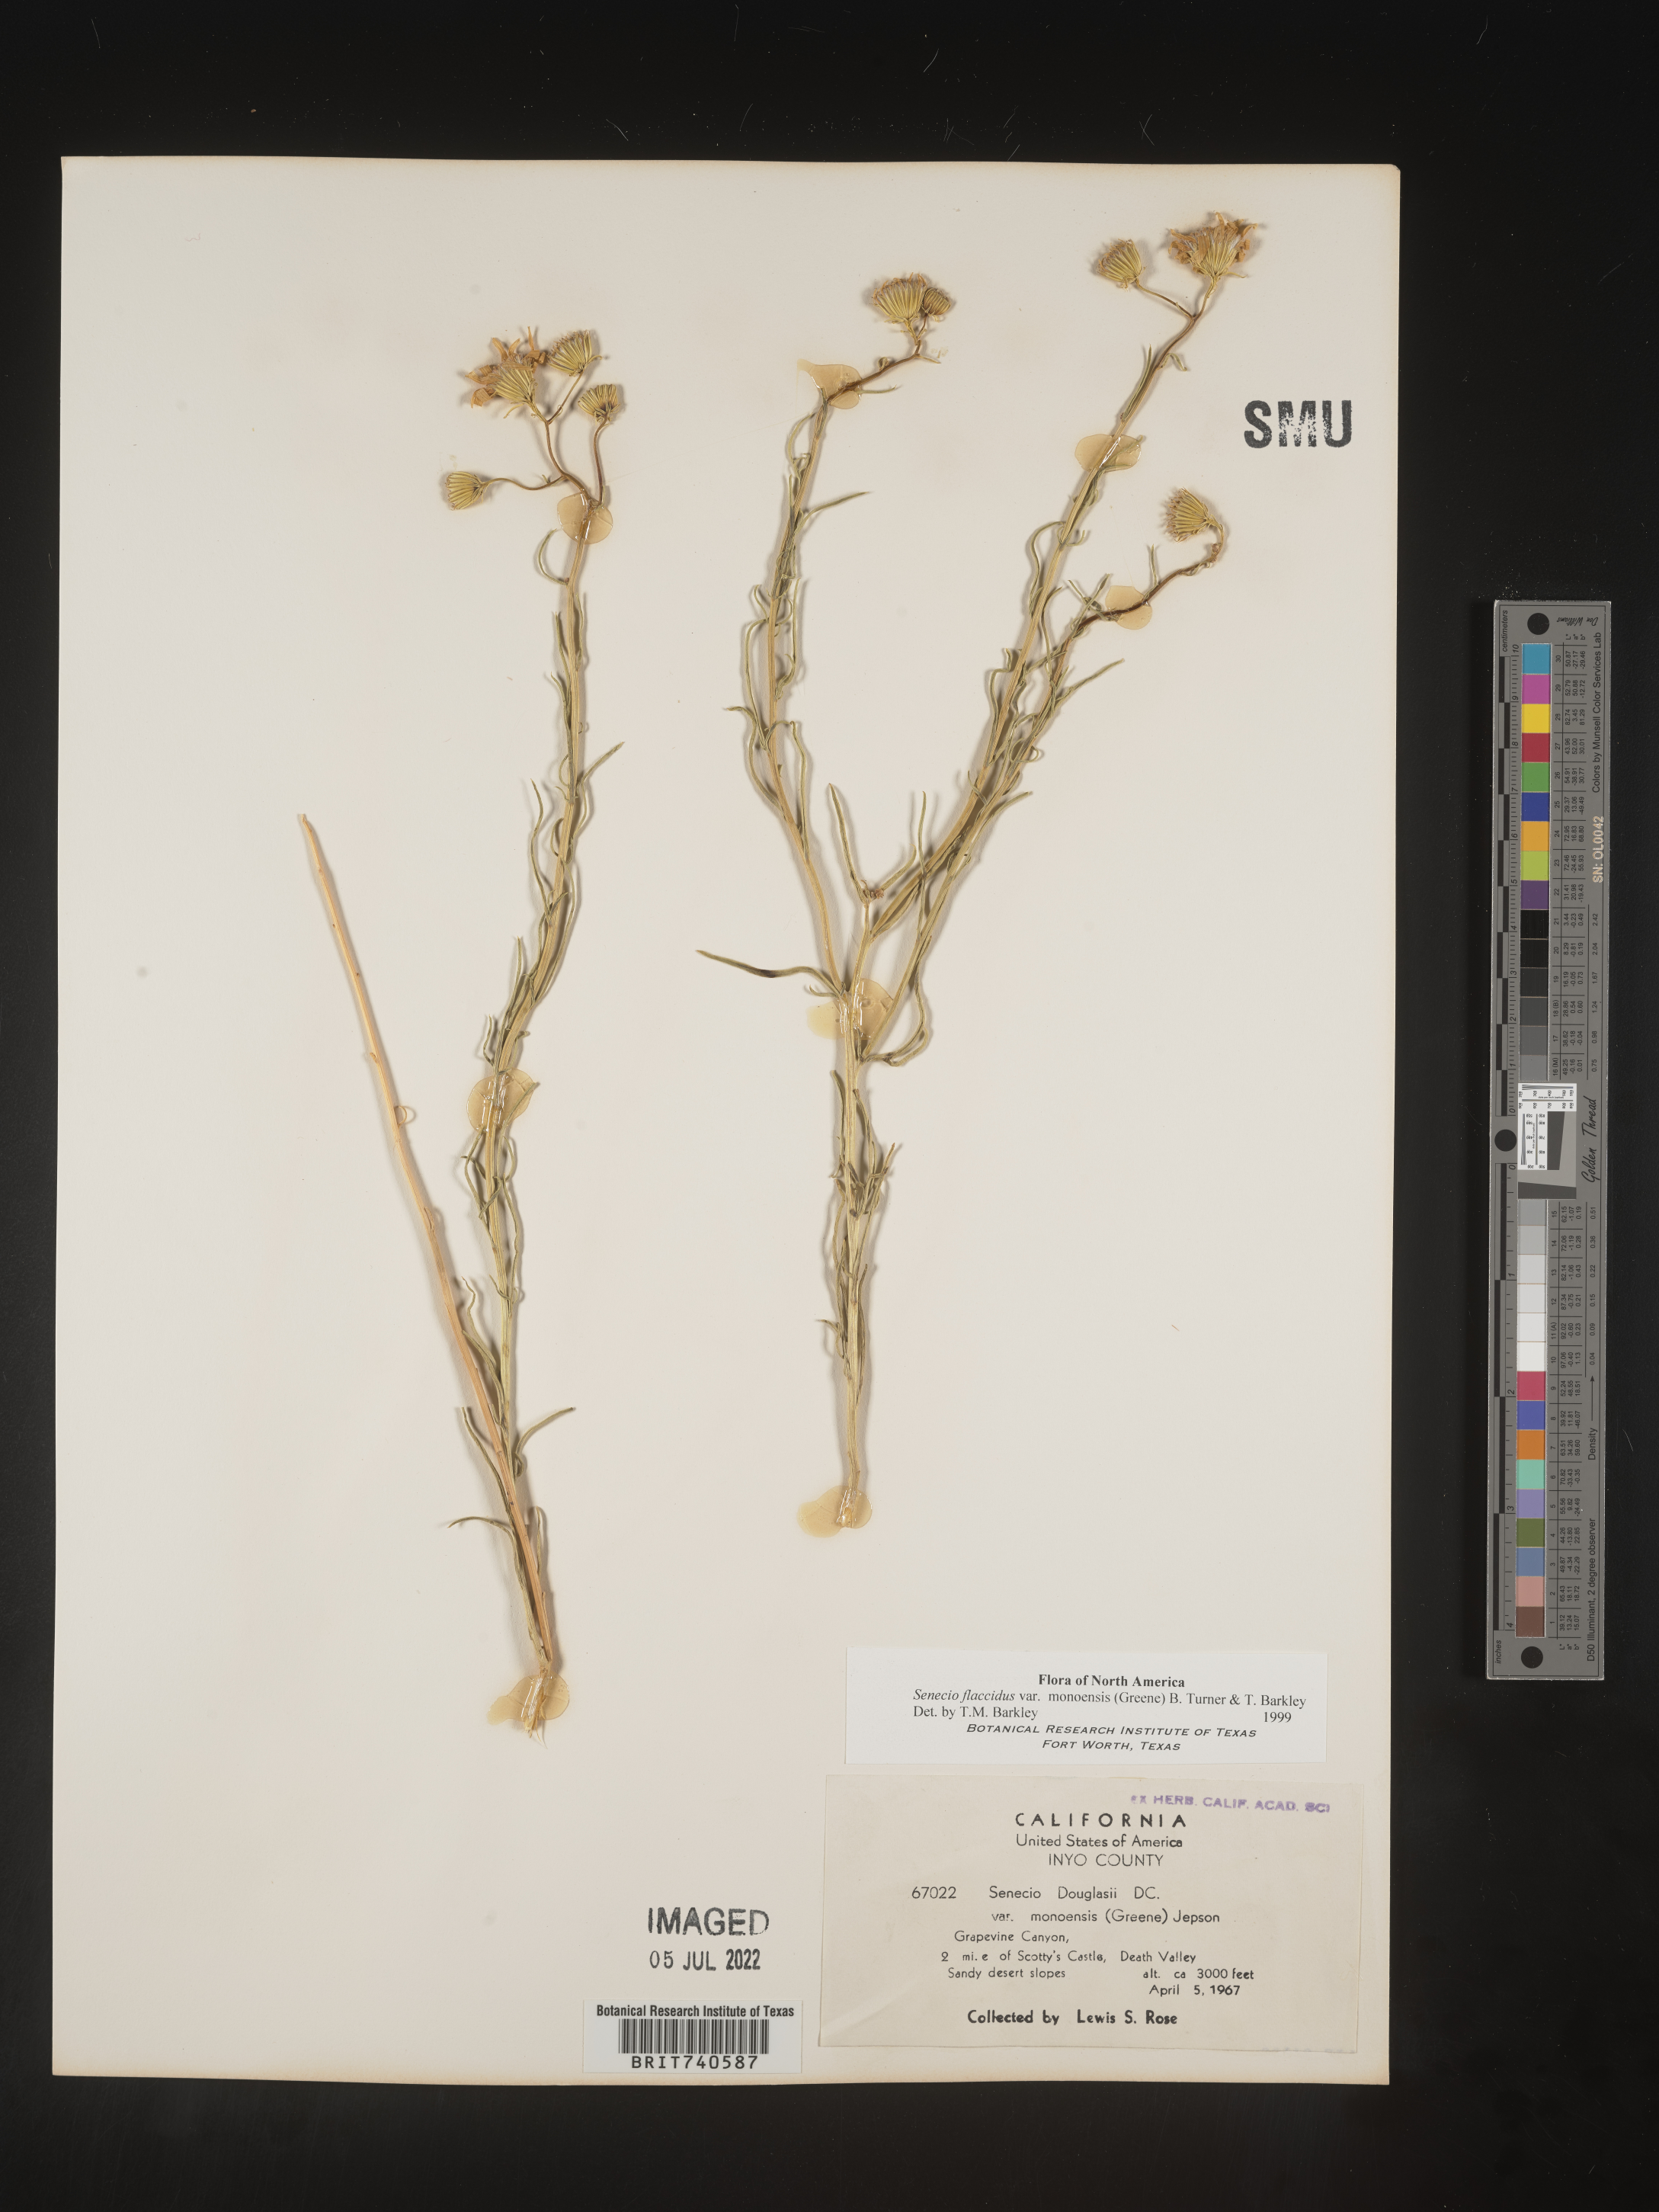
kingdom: Plantae
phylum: Tracheophyta
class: Magnoliopsida
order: Asterales
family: Asteraceae
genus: Senecio
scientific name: Senecio flaccidus
